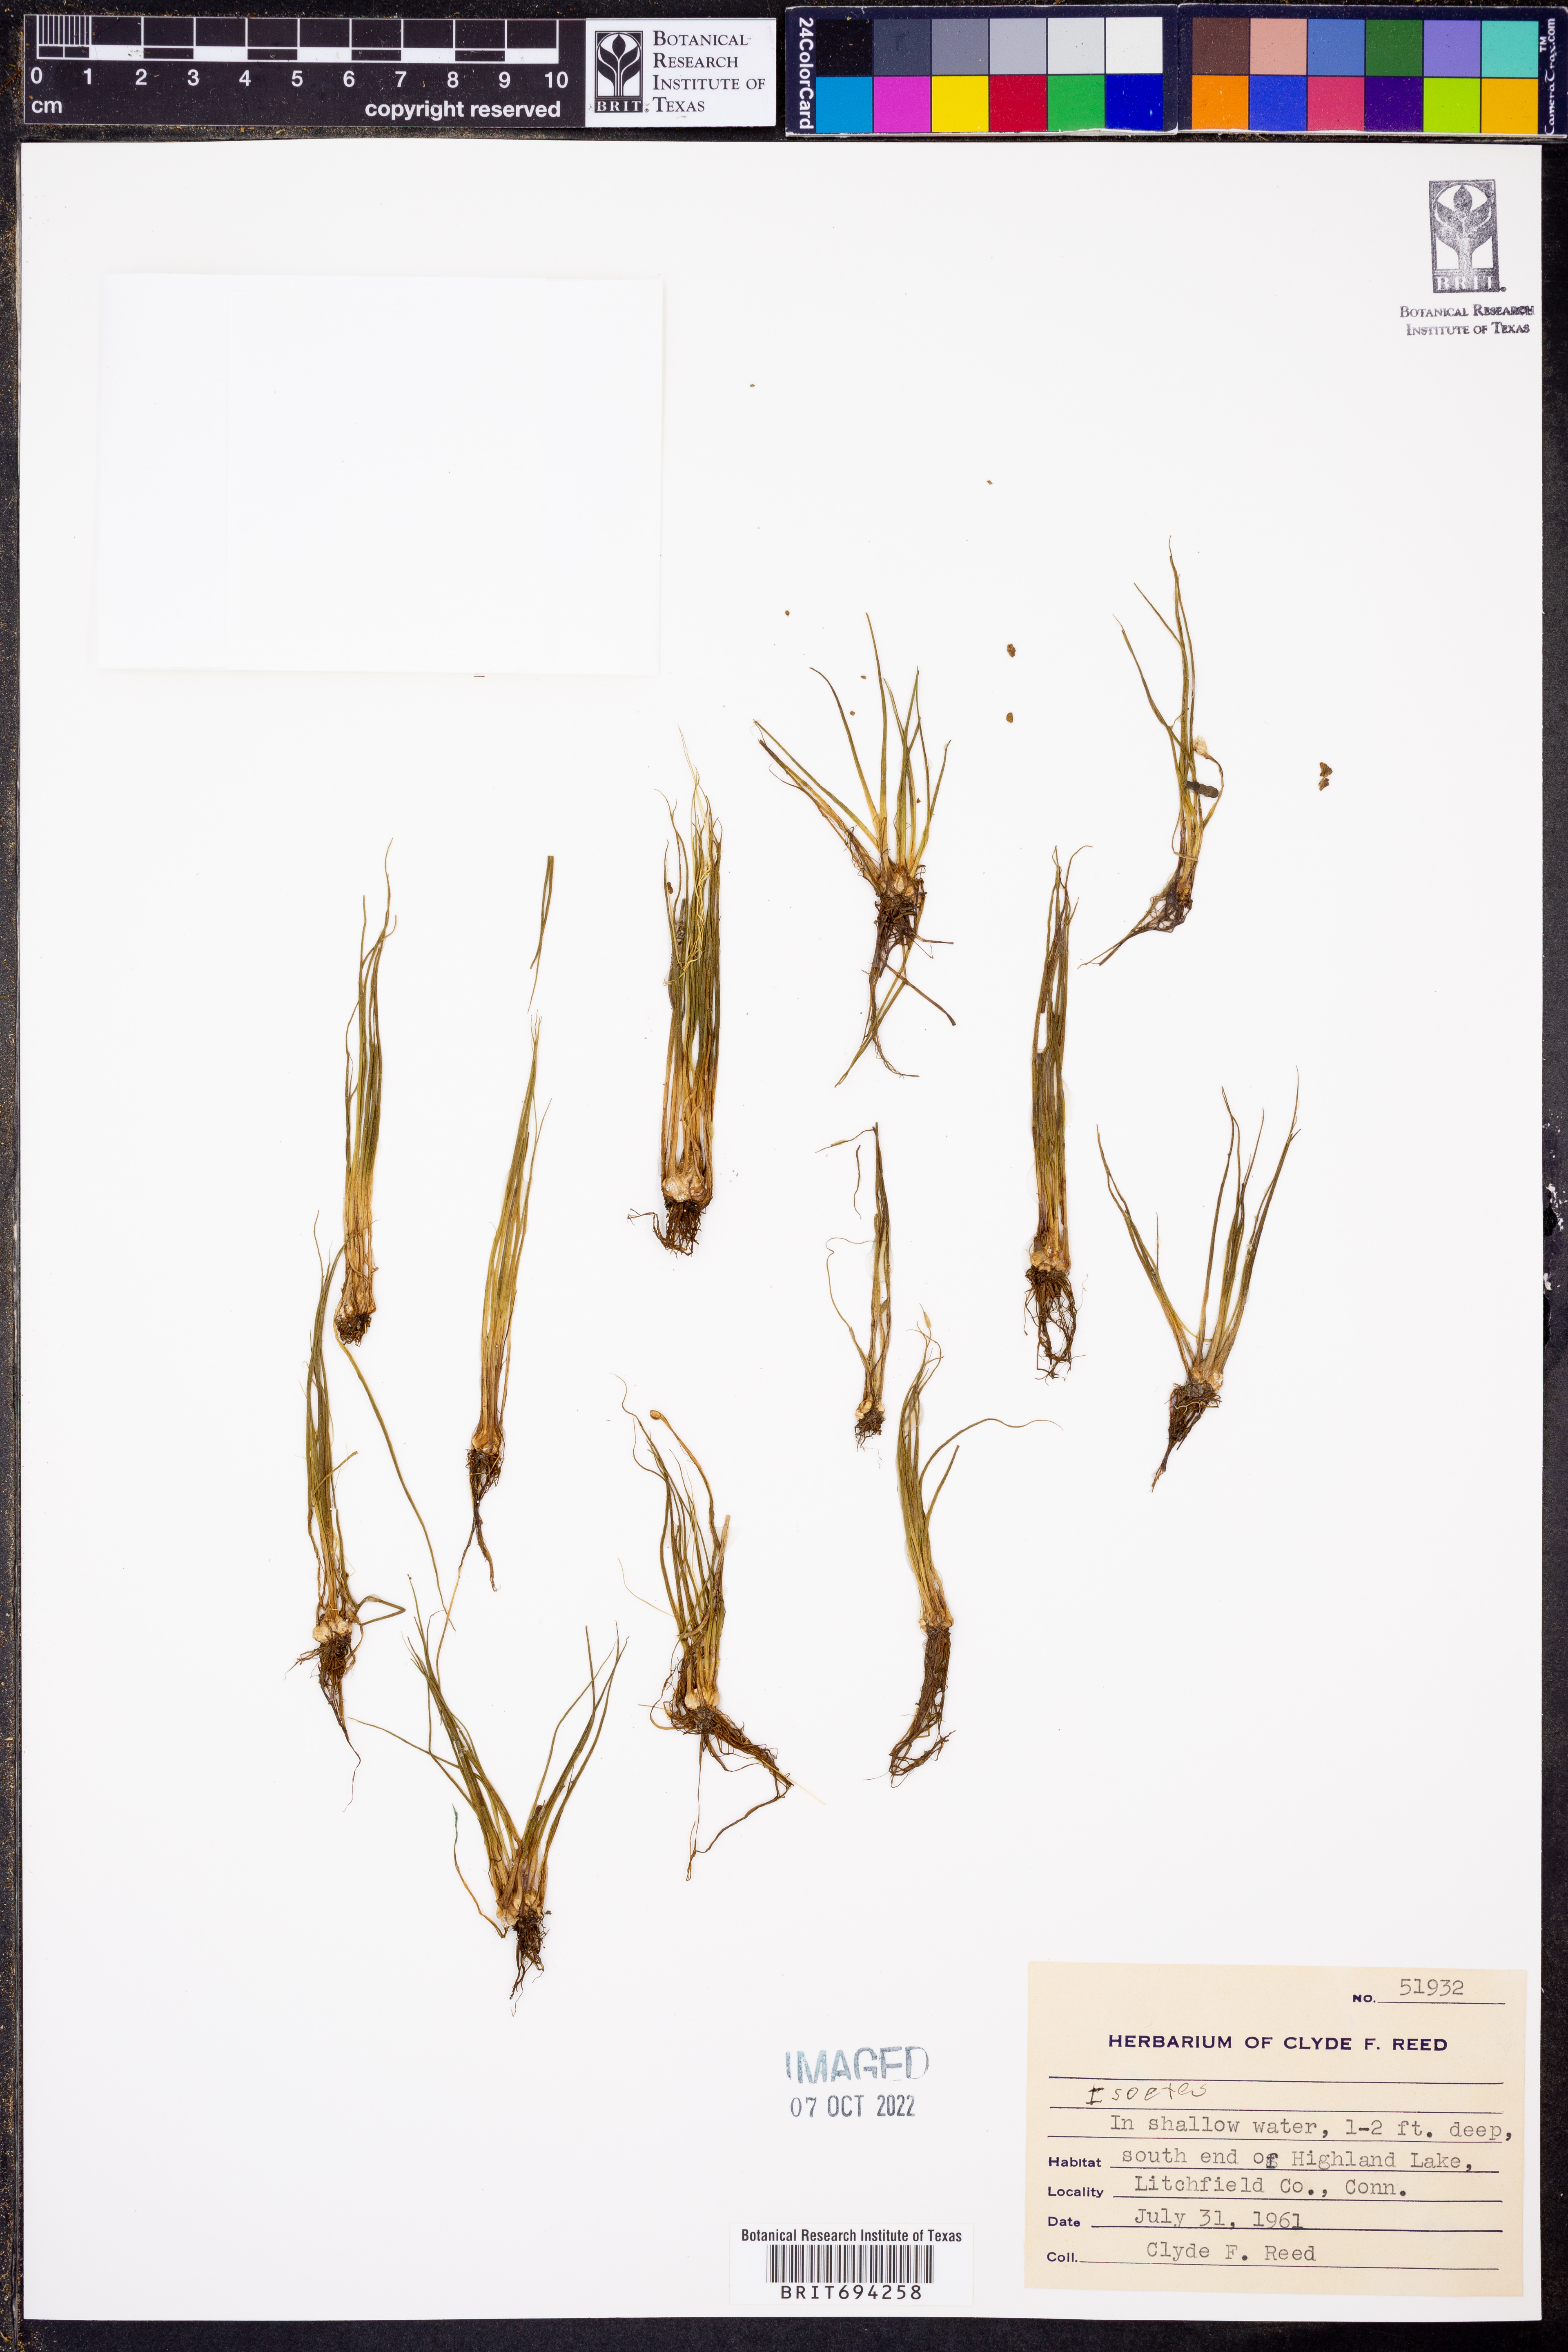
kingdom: Plantae
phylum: Tracheophyta
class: Lycopodiopsida
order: Isoetales
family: Isoetaceae
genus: Isoetes
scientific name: Isoetes
